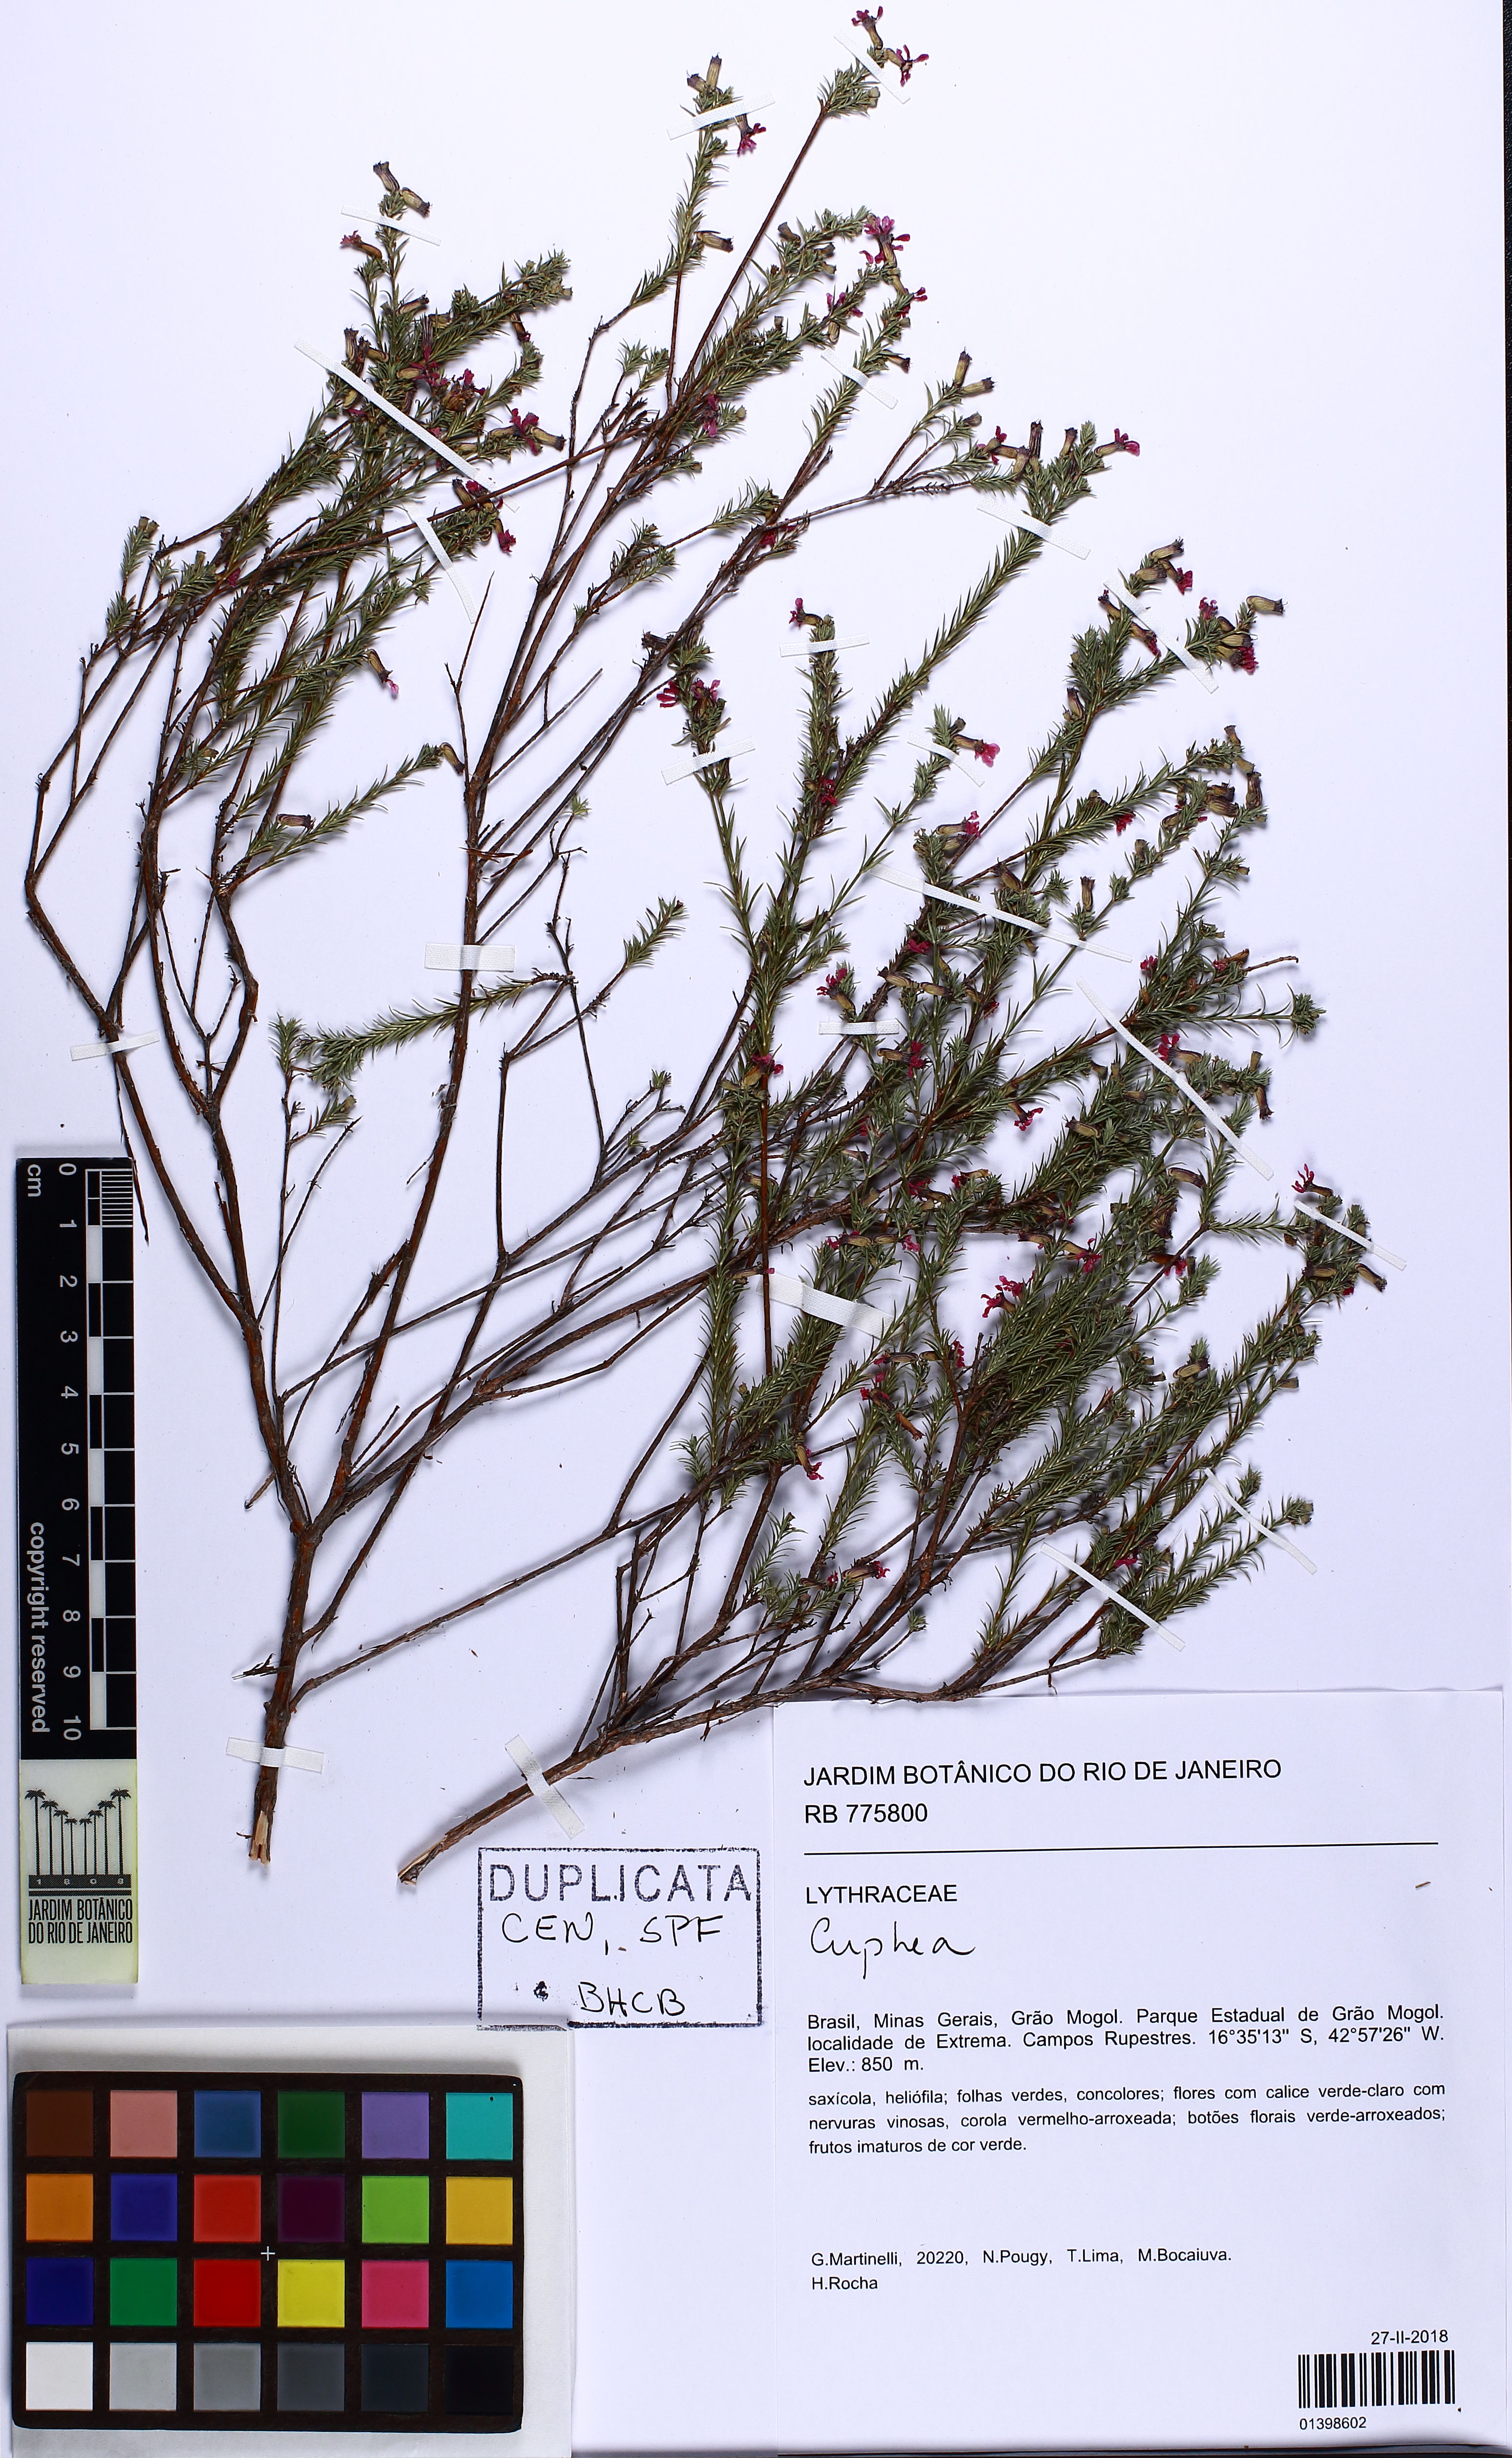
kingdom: Plantae
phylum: Tracheophyta
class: Magnoliopsida
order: Myrtales
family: Lythraceae
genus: Cuphea
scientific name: Cuphea
